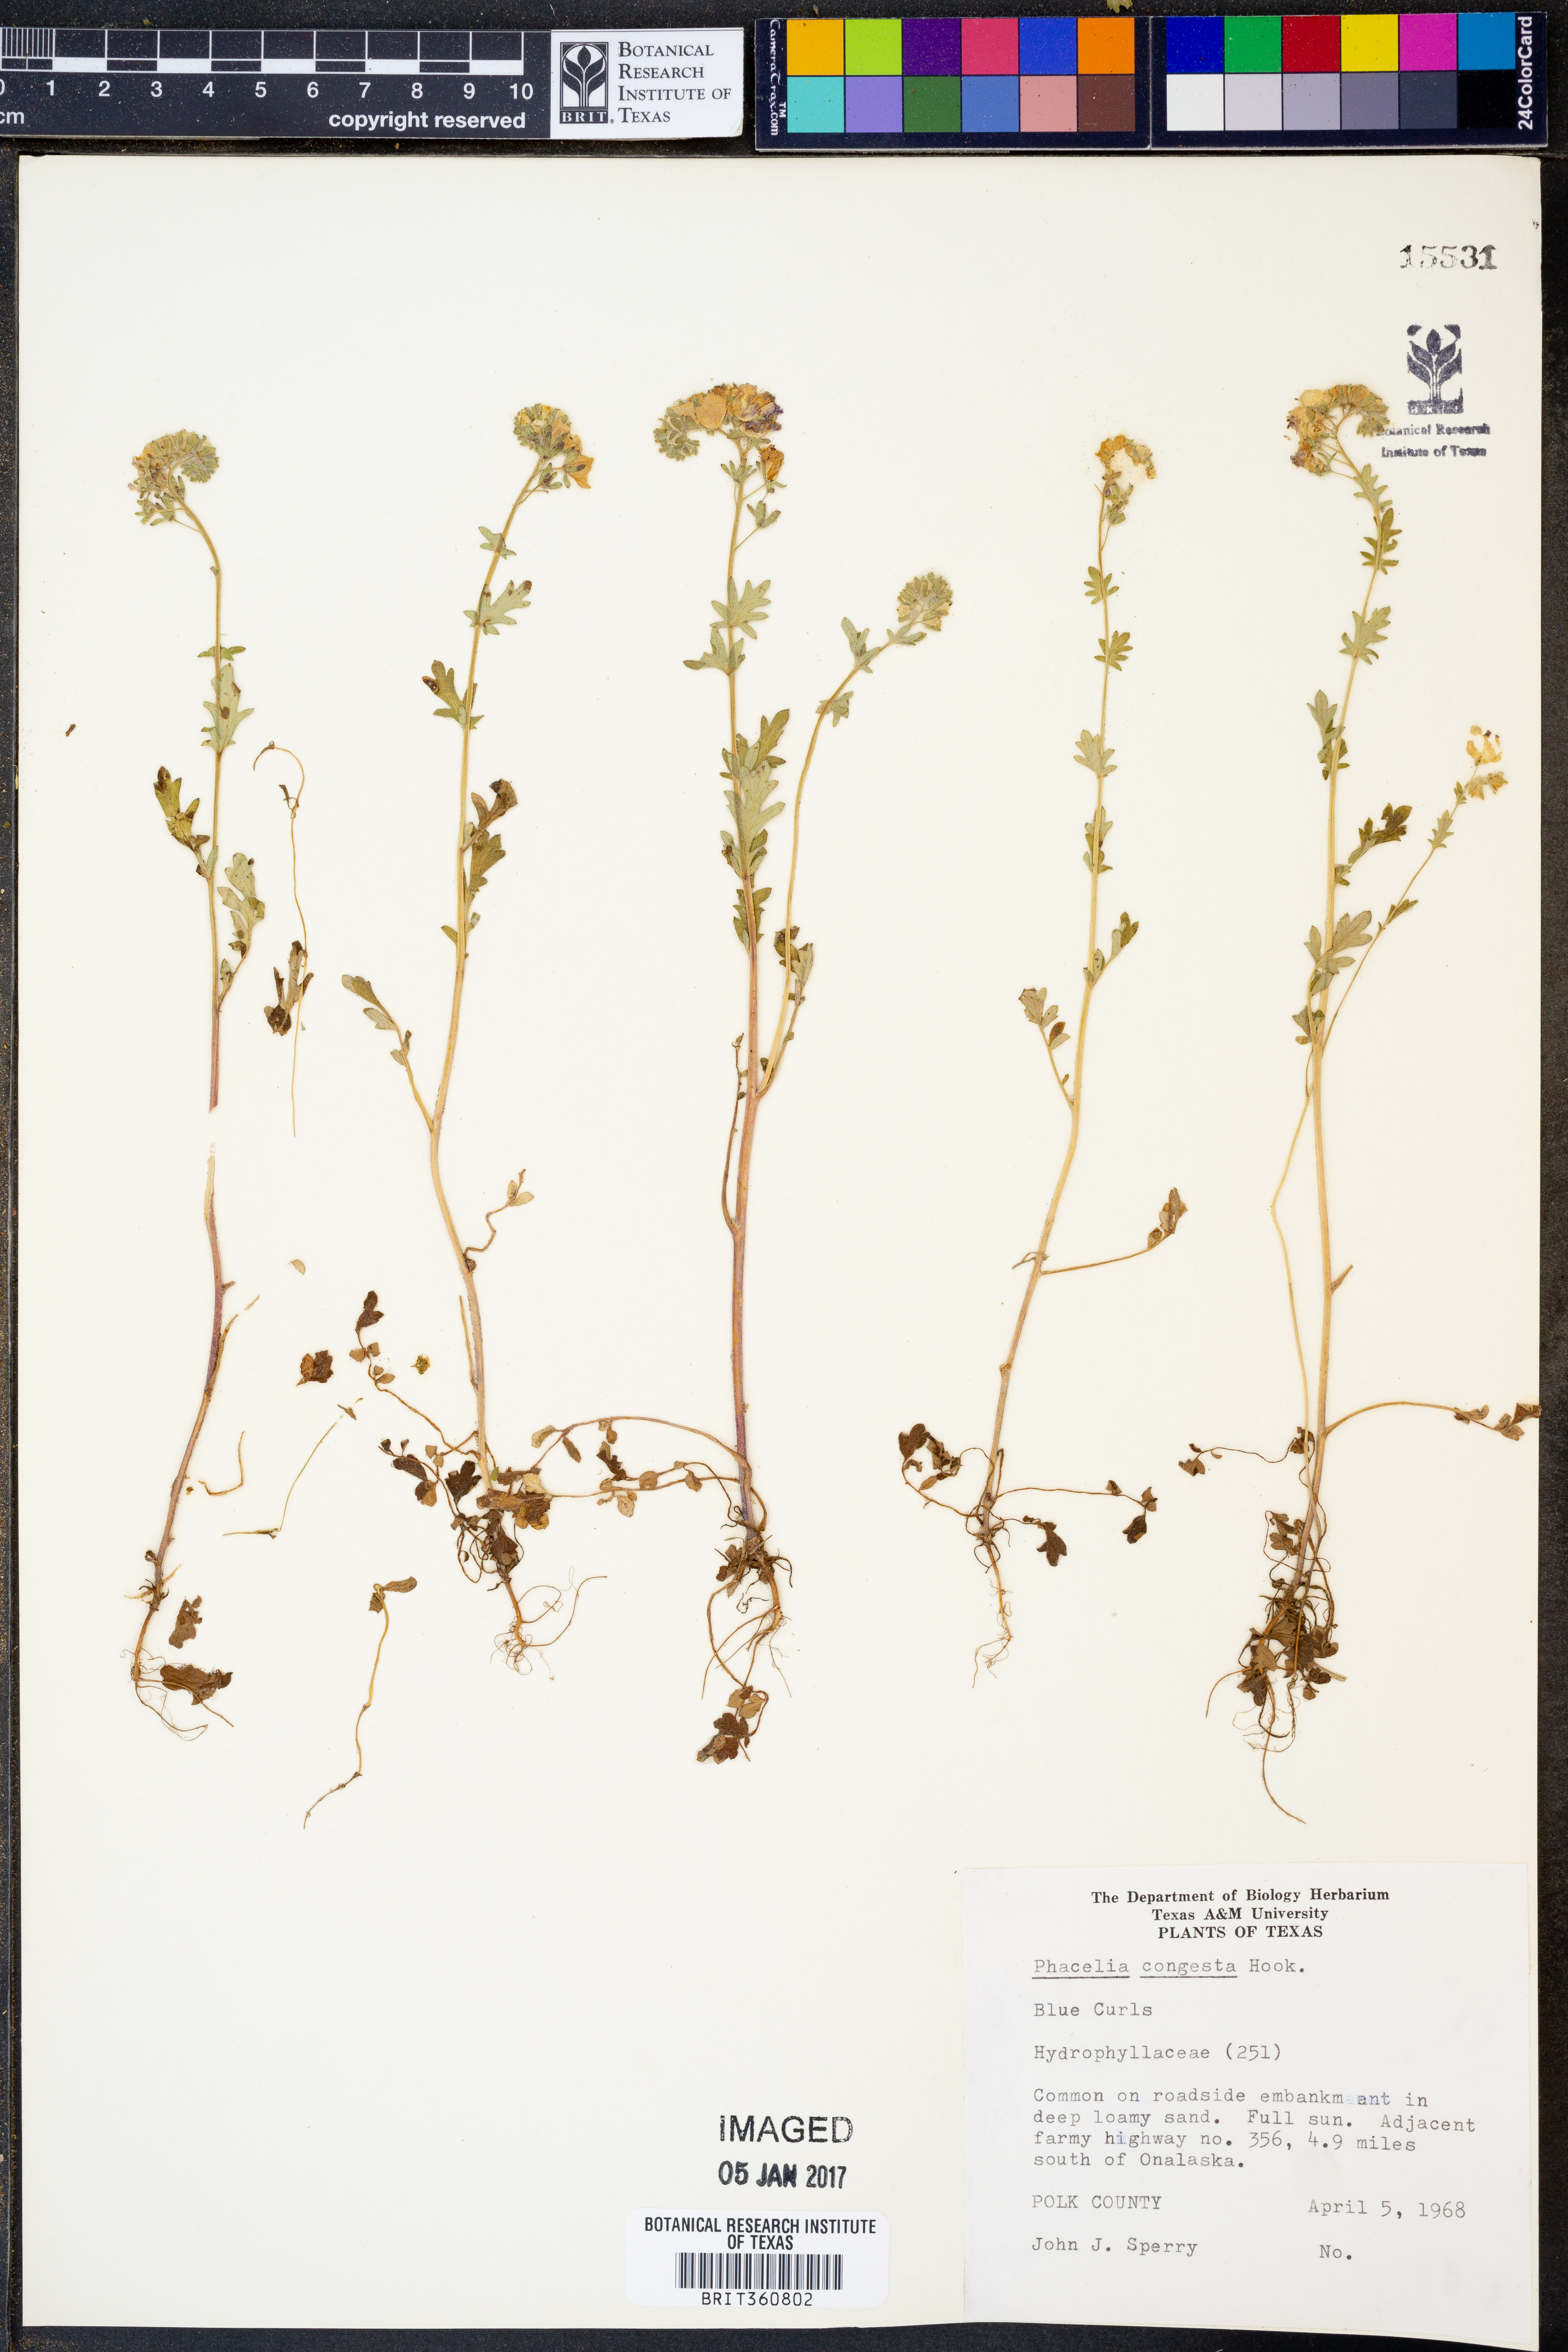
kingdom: Plantae
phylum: Tracheophyta
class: Magnoliopsida
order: Boraginales
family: Hydrophyllaceae
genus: Phacelia
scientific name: Phacelia congesta
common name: Blue curls
